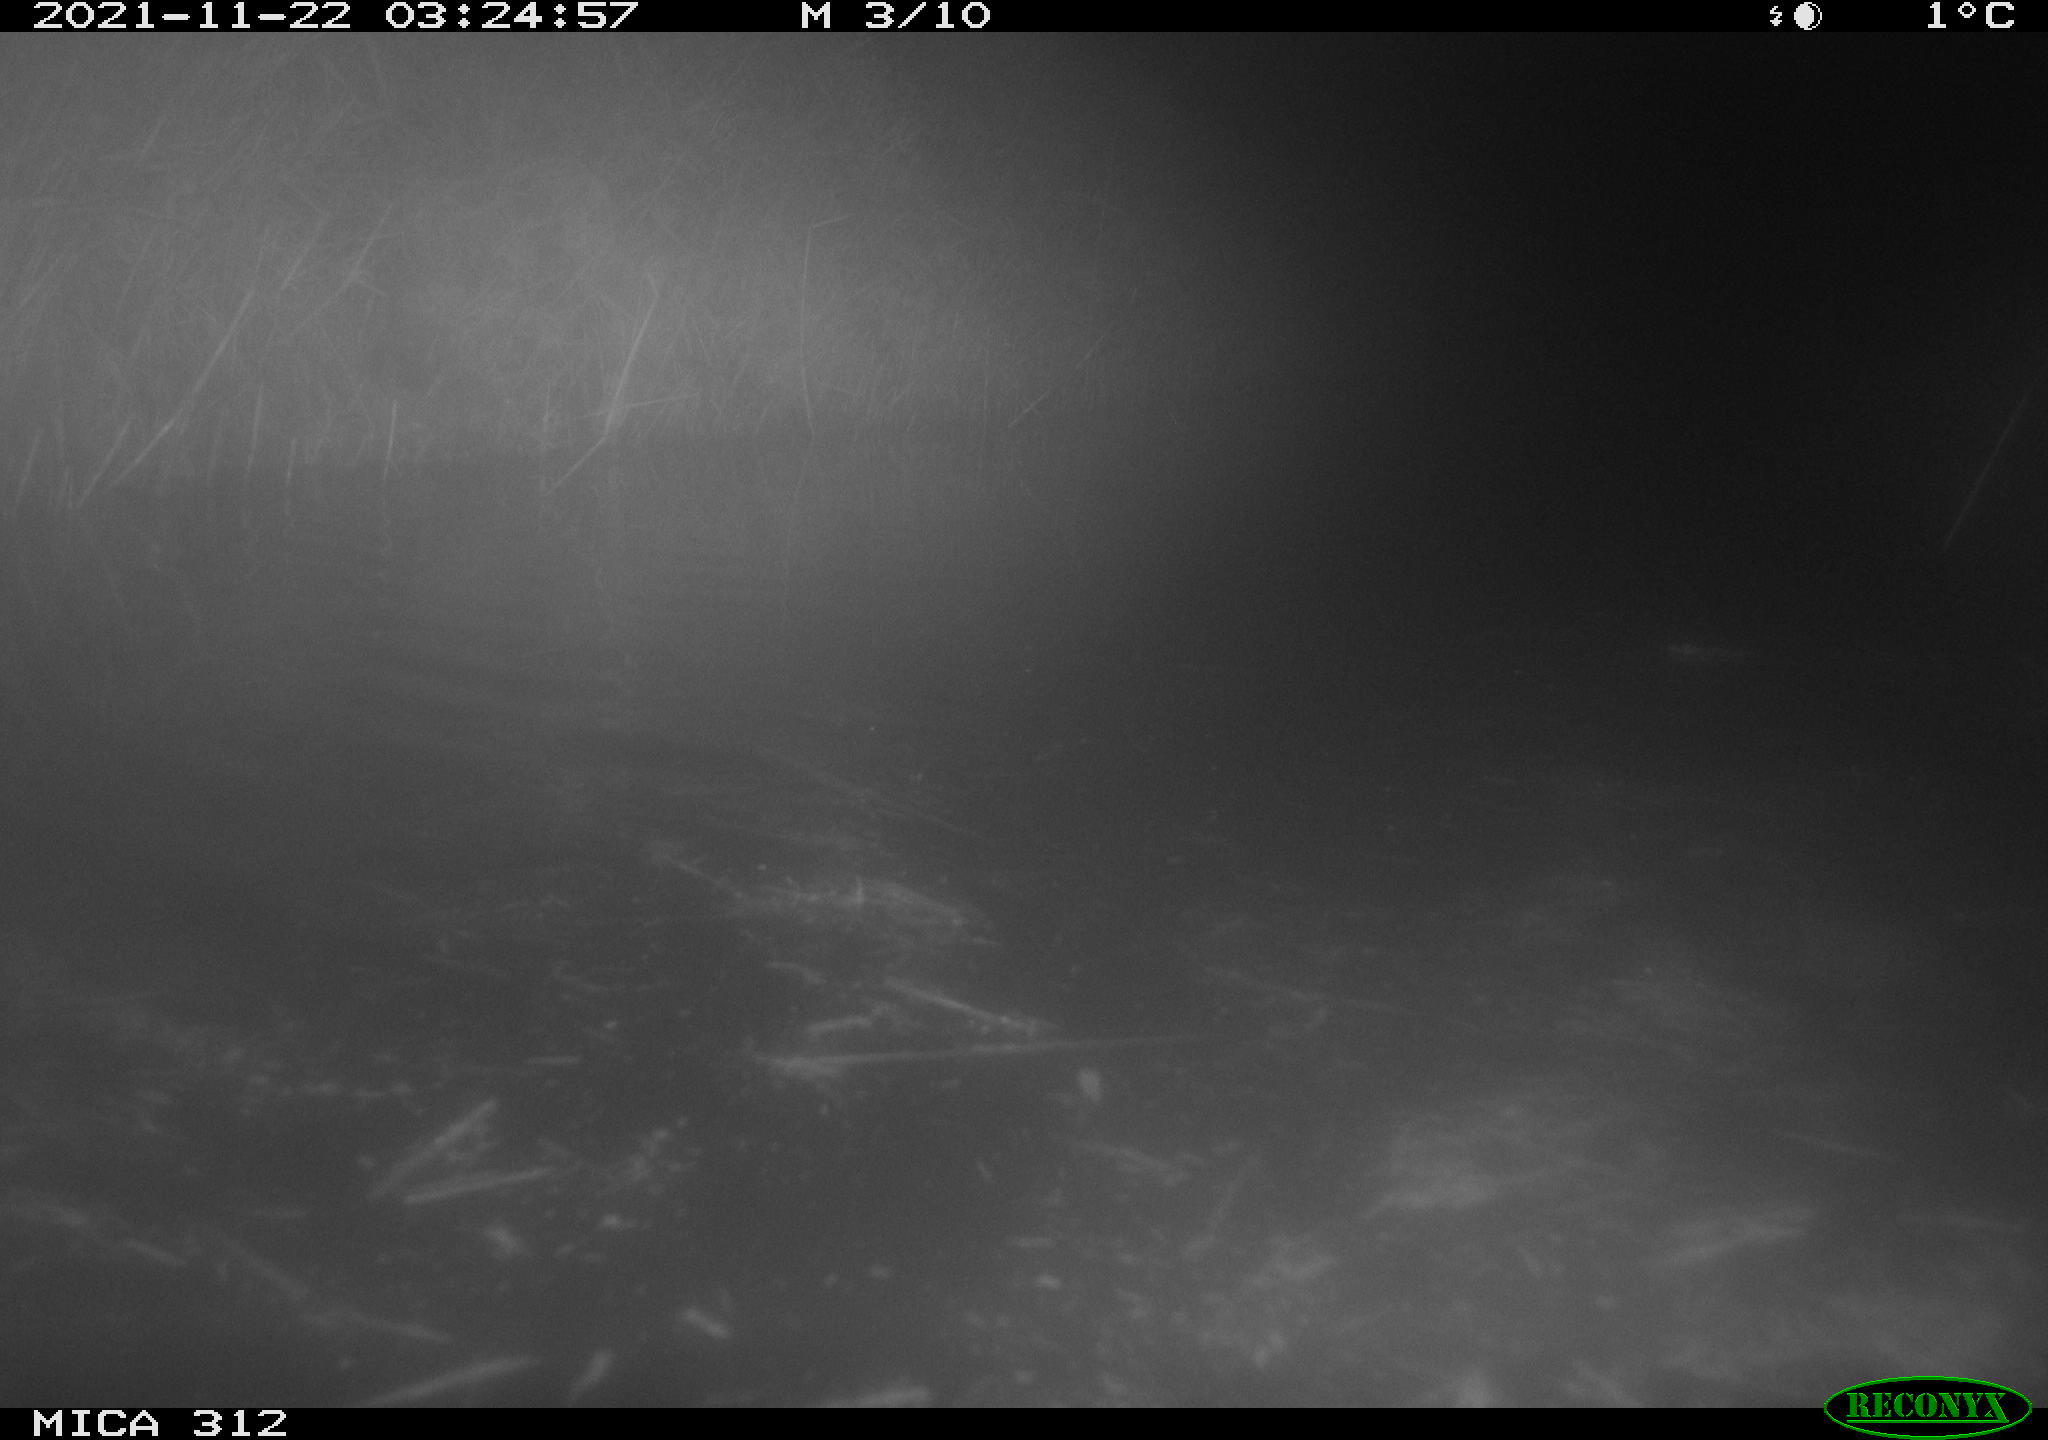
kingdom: Animalia
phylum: Chordata
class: Mammalia
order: Rodentia
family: Muridae
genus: Rattus
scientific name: Rattus norvegicus
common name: Brown rat
